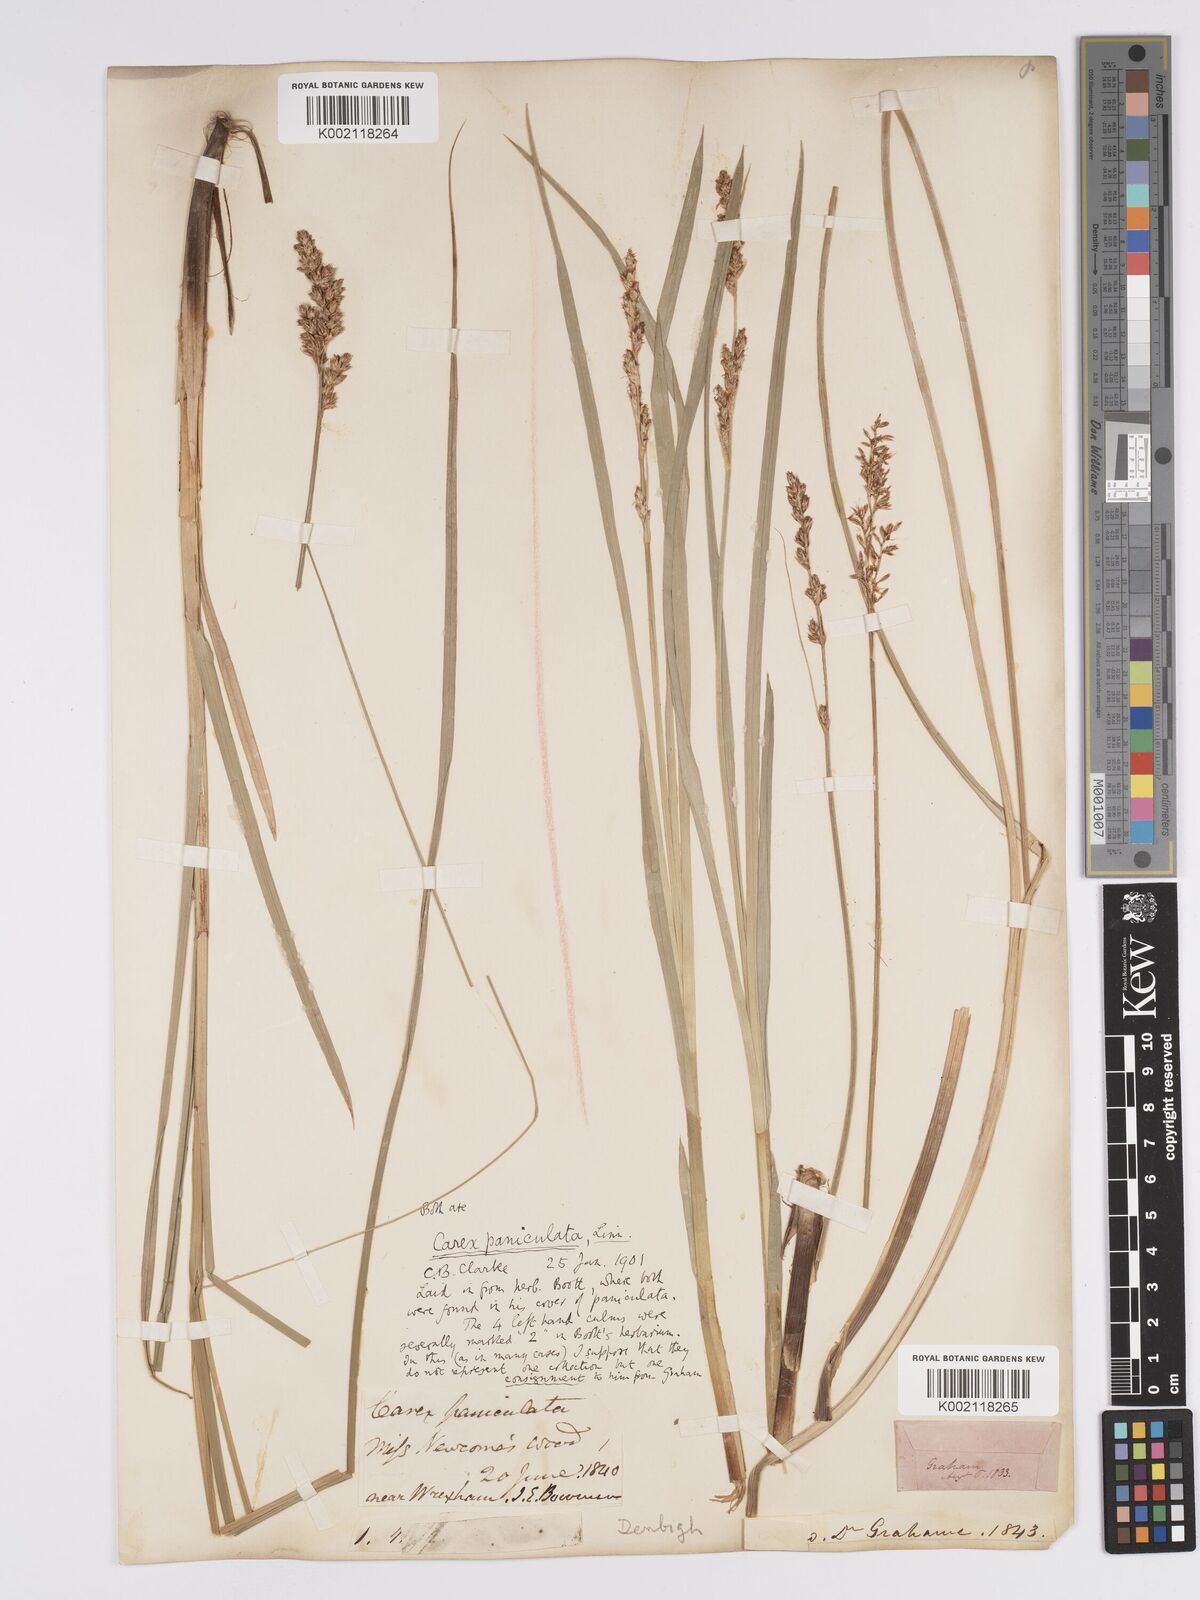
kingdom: Plantae
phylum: Tracheophyta
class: Liliopsida
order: Poales
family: Cyperaceae
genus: Carex
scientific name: Carex paniculata
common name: Greater tussock-sedge
